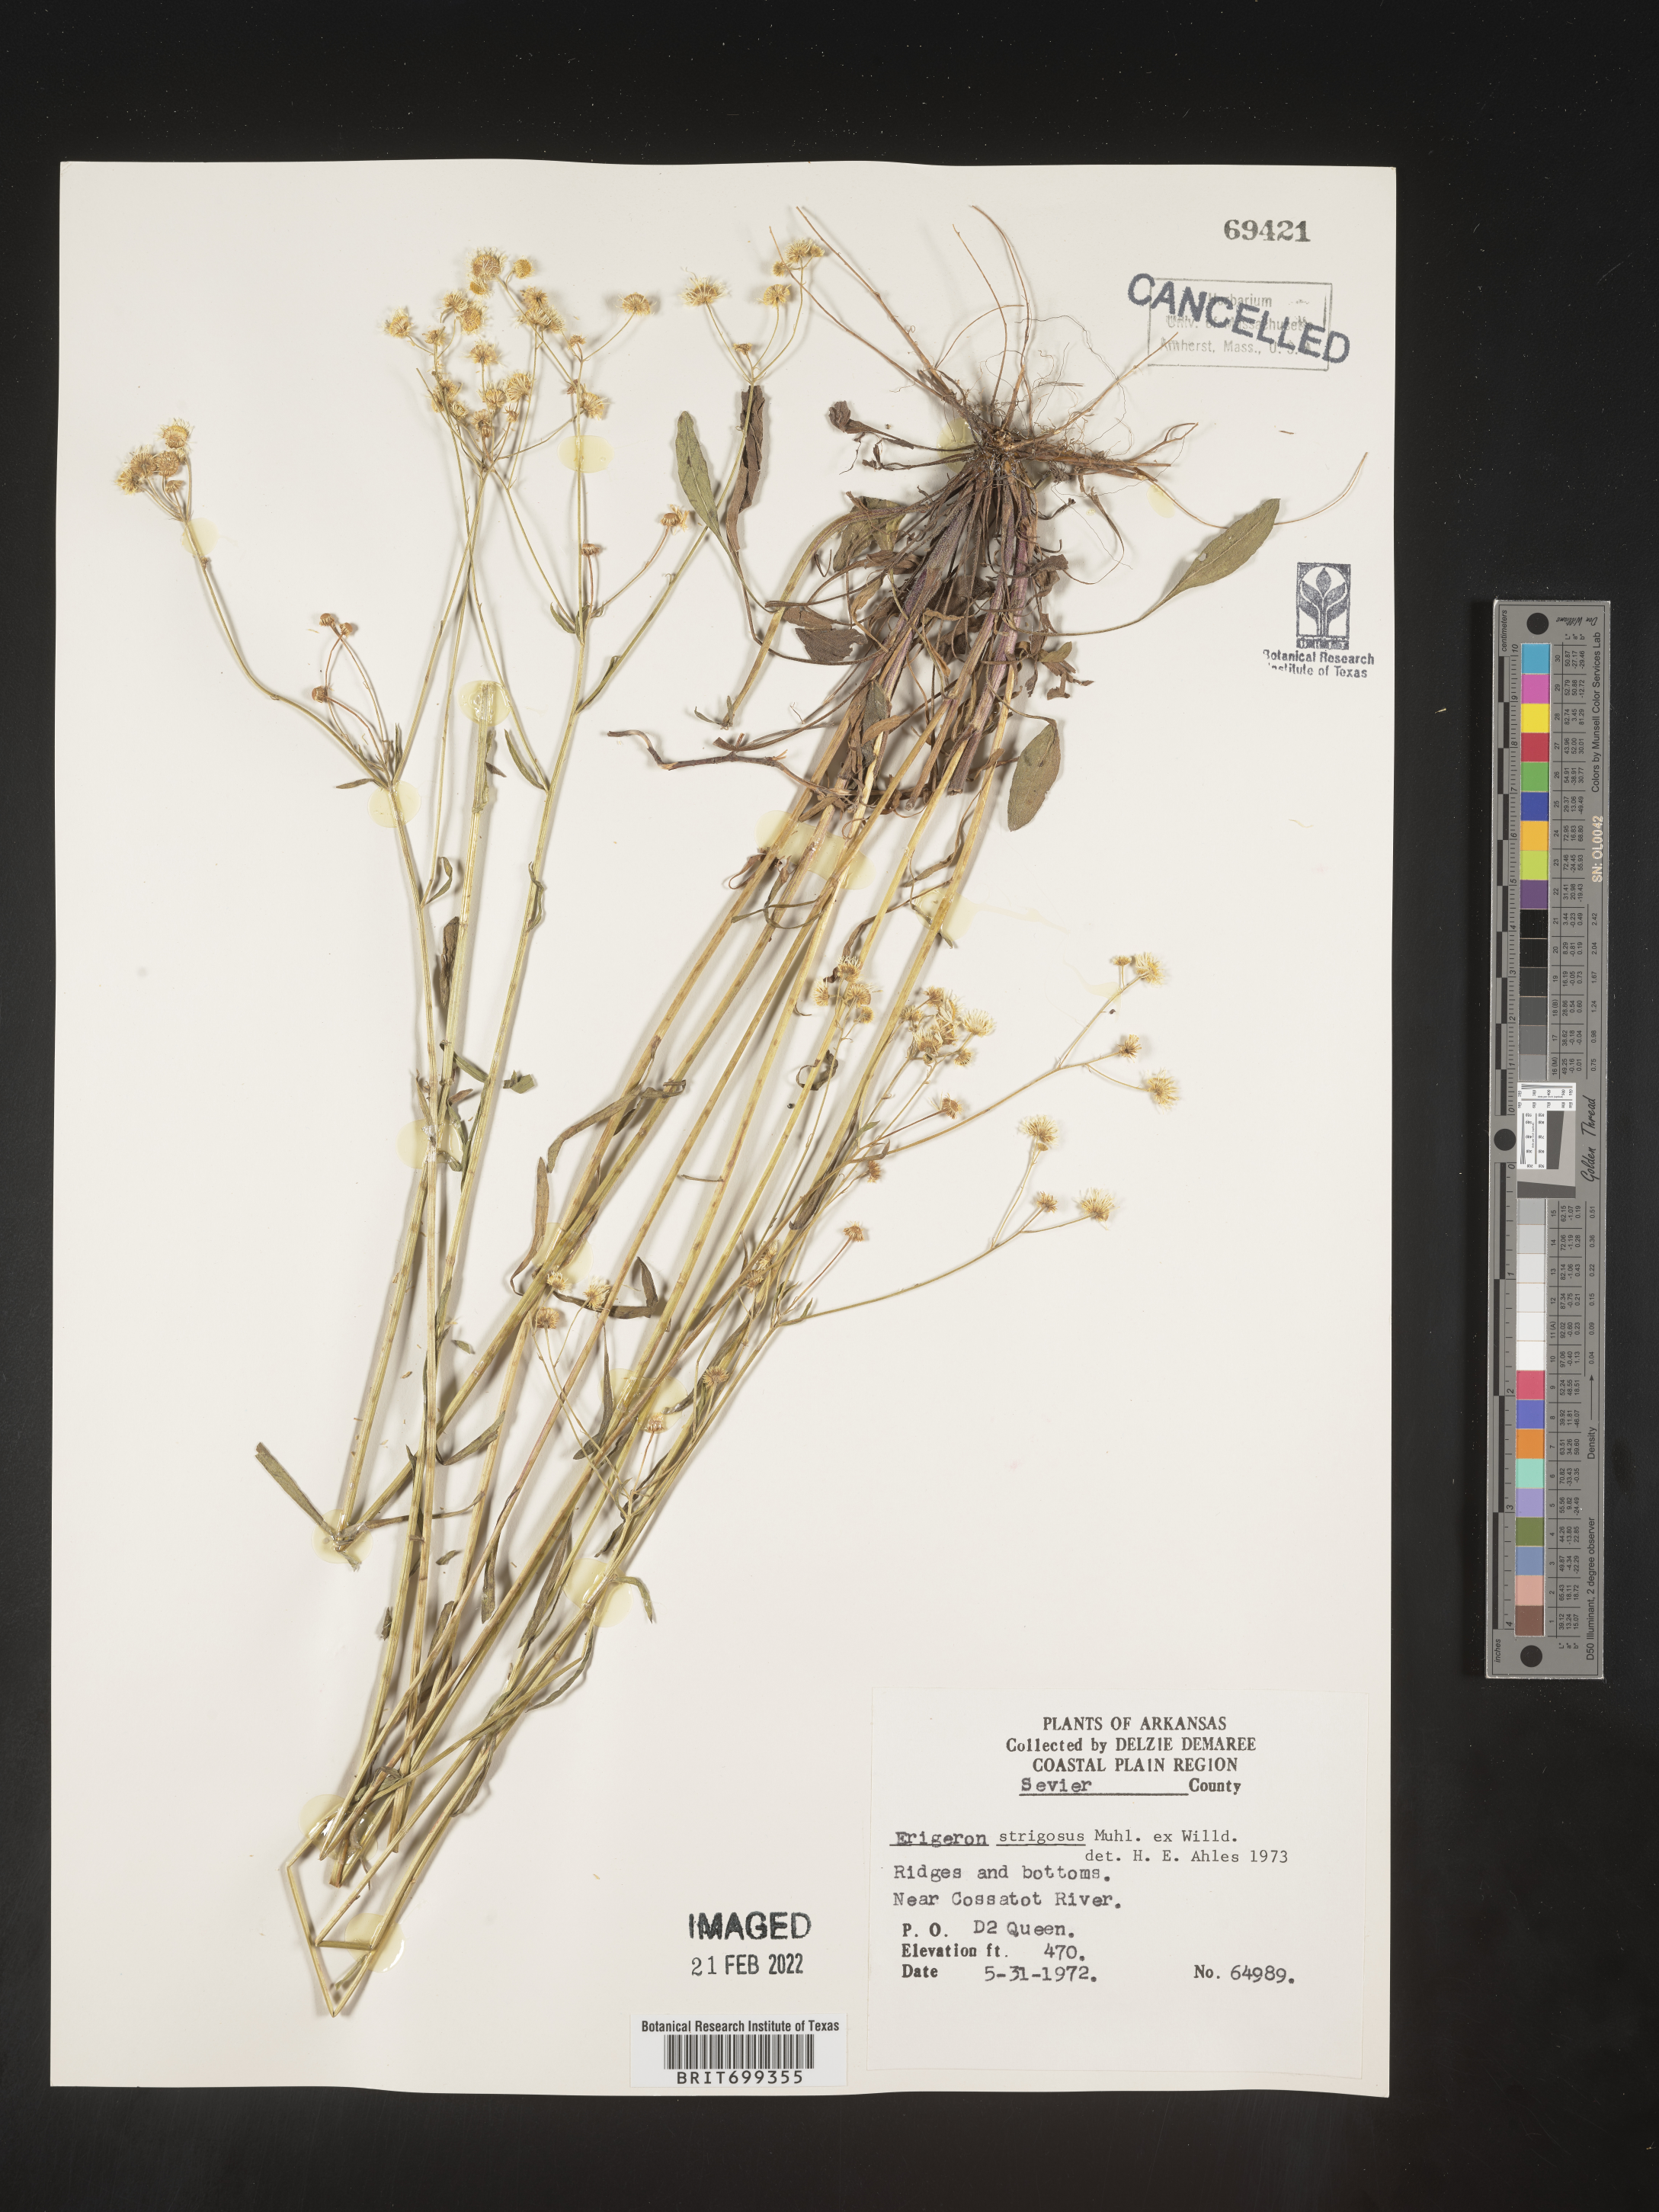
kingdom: Plantae
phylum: Tracheophyta
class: Magnoliopsida
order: Asterales
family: Asteraceae
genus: Erigeron
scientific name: Erigeron strigosus
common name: Common eastern fleabane
